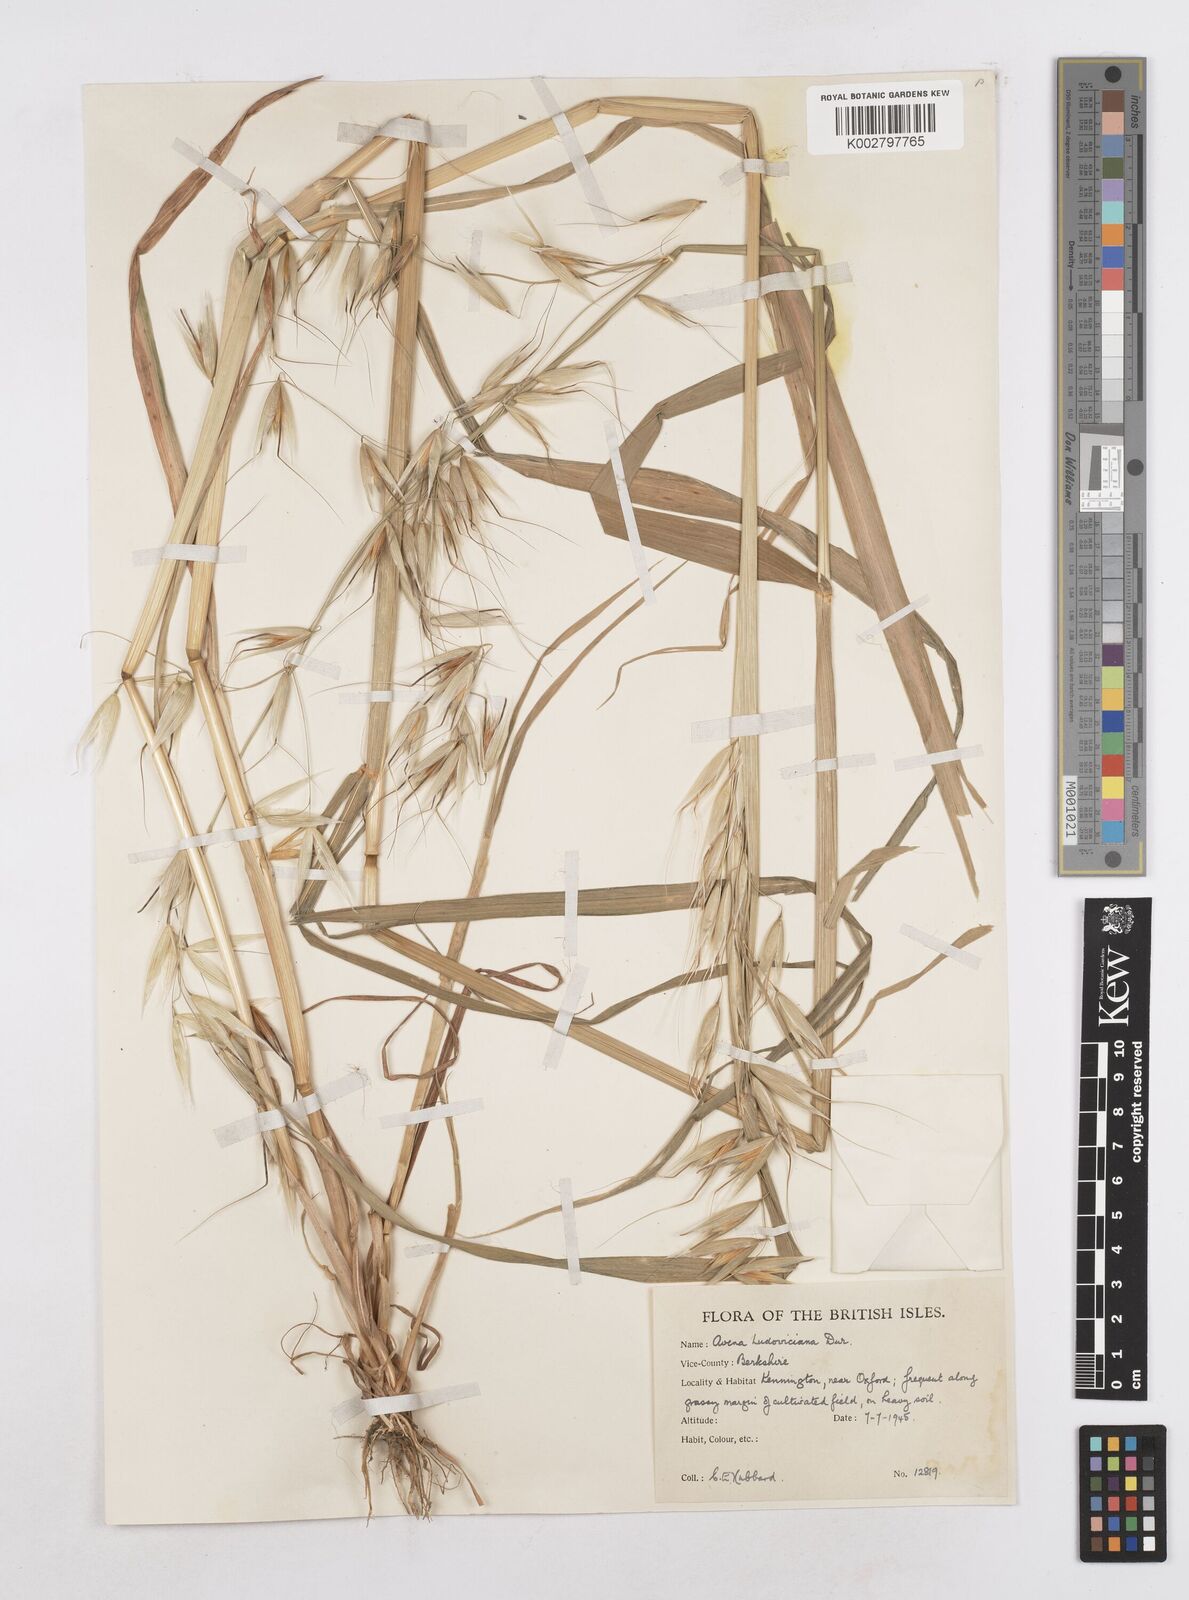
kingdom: Plantae
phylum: Tracheophyta
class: Liliopsida
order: Poales
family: Poaceae
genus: Avena
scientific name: Avena sterilis
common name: Animated oat
